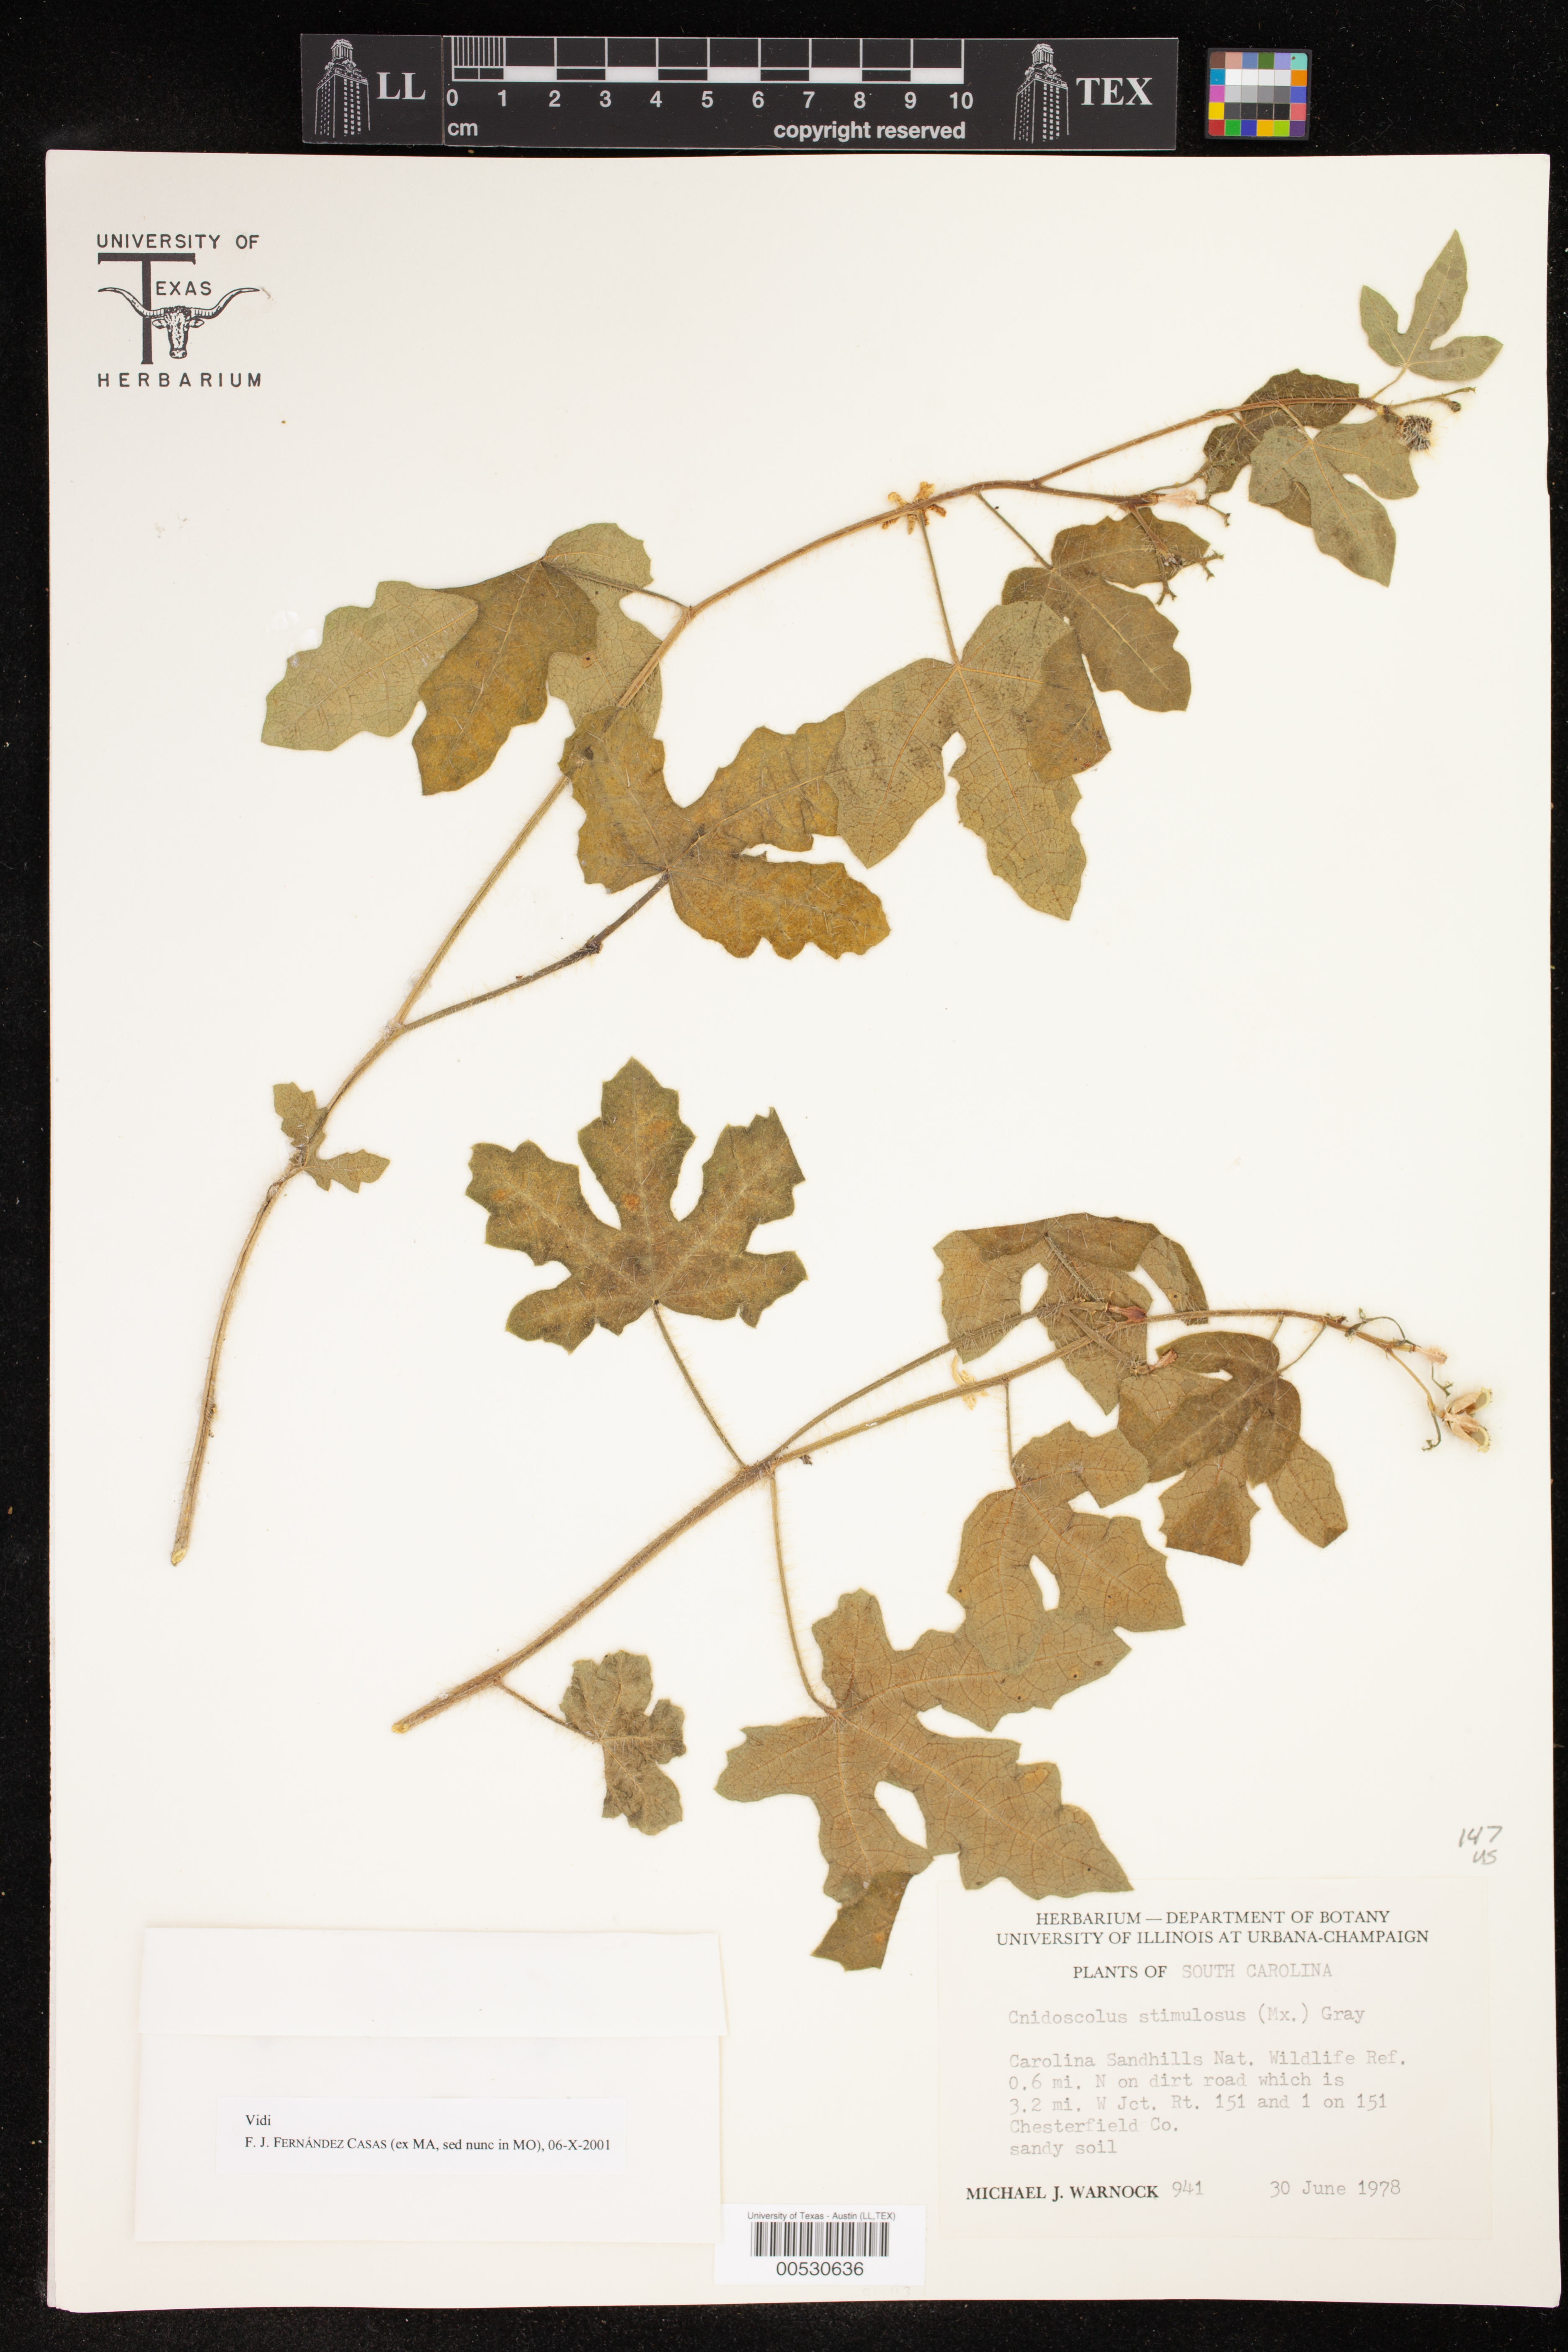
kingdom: Plantae
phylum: Tracheophyta
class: Magnoliopsida
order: Malpighiales
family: Euphorbiaceae
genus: Cnidoscolus
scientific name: Cnidoscolus stimulosus
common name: Bull-nettle
